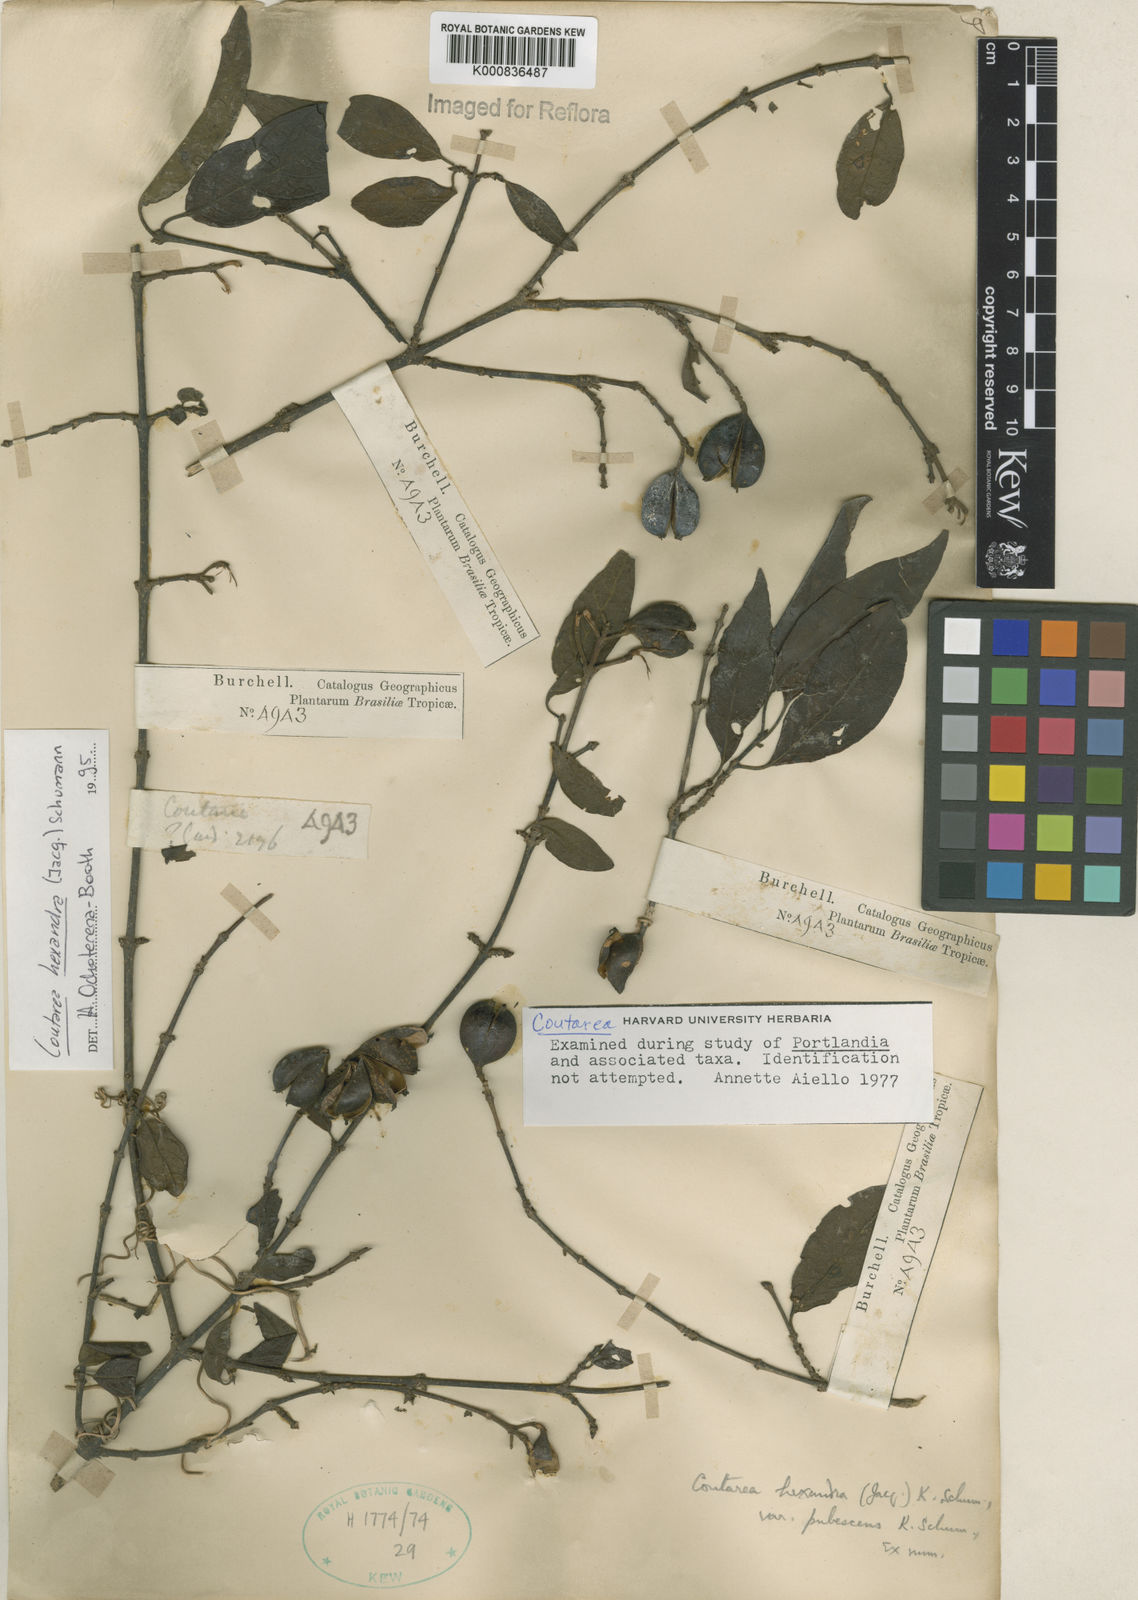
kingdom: Plantae
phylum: Tracheophyta
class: Magnoliopsida
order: Gentianales
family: Rubiaceae
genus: Coutarea
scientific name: Coutarea hexandra
